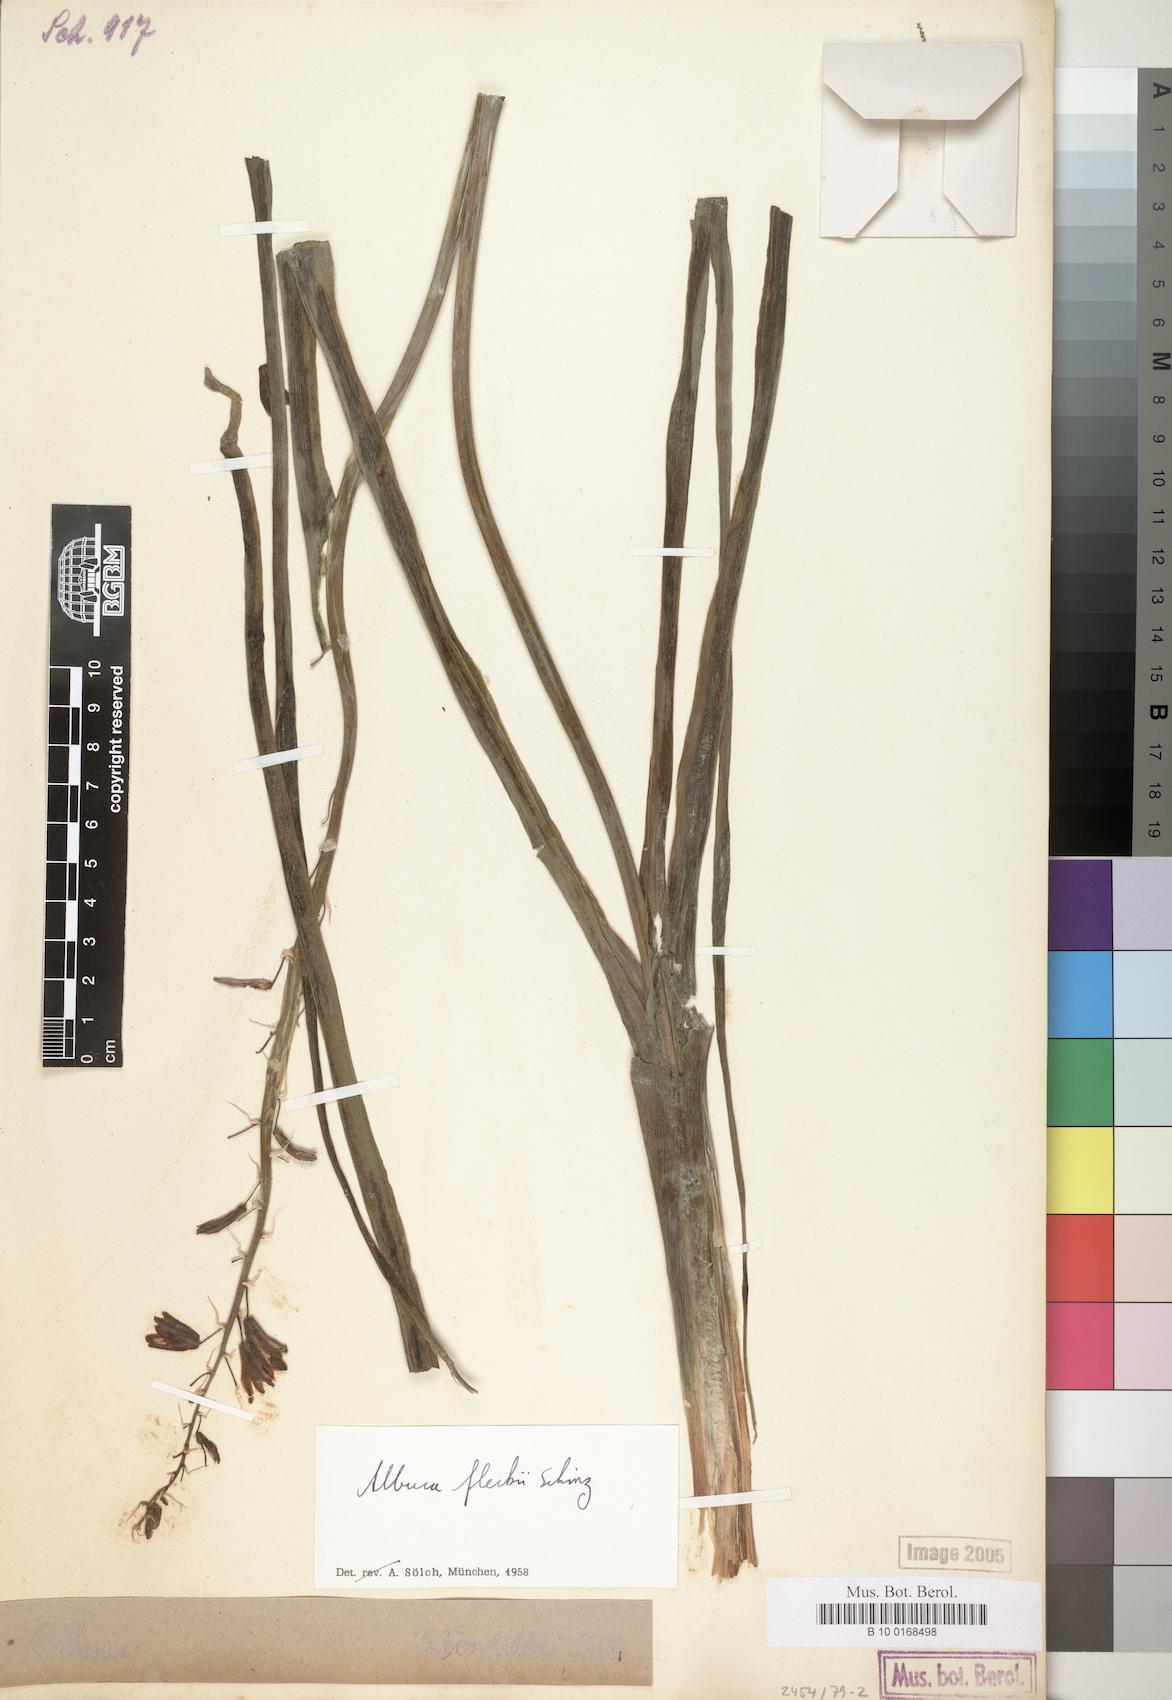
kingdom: Plantae
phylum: Tracheophyta
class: Liliopsida
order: Asparagales
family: Asparagaceae
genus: Albuca
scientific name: Albuca abyssinica
